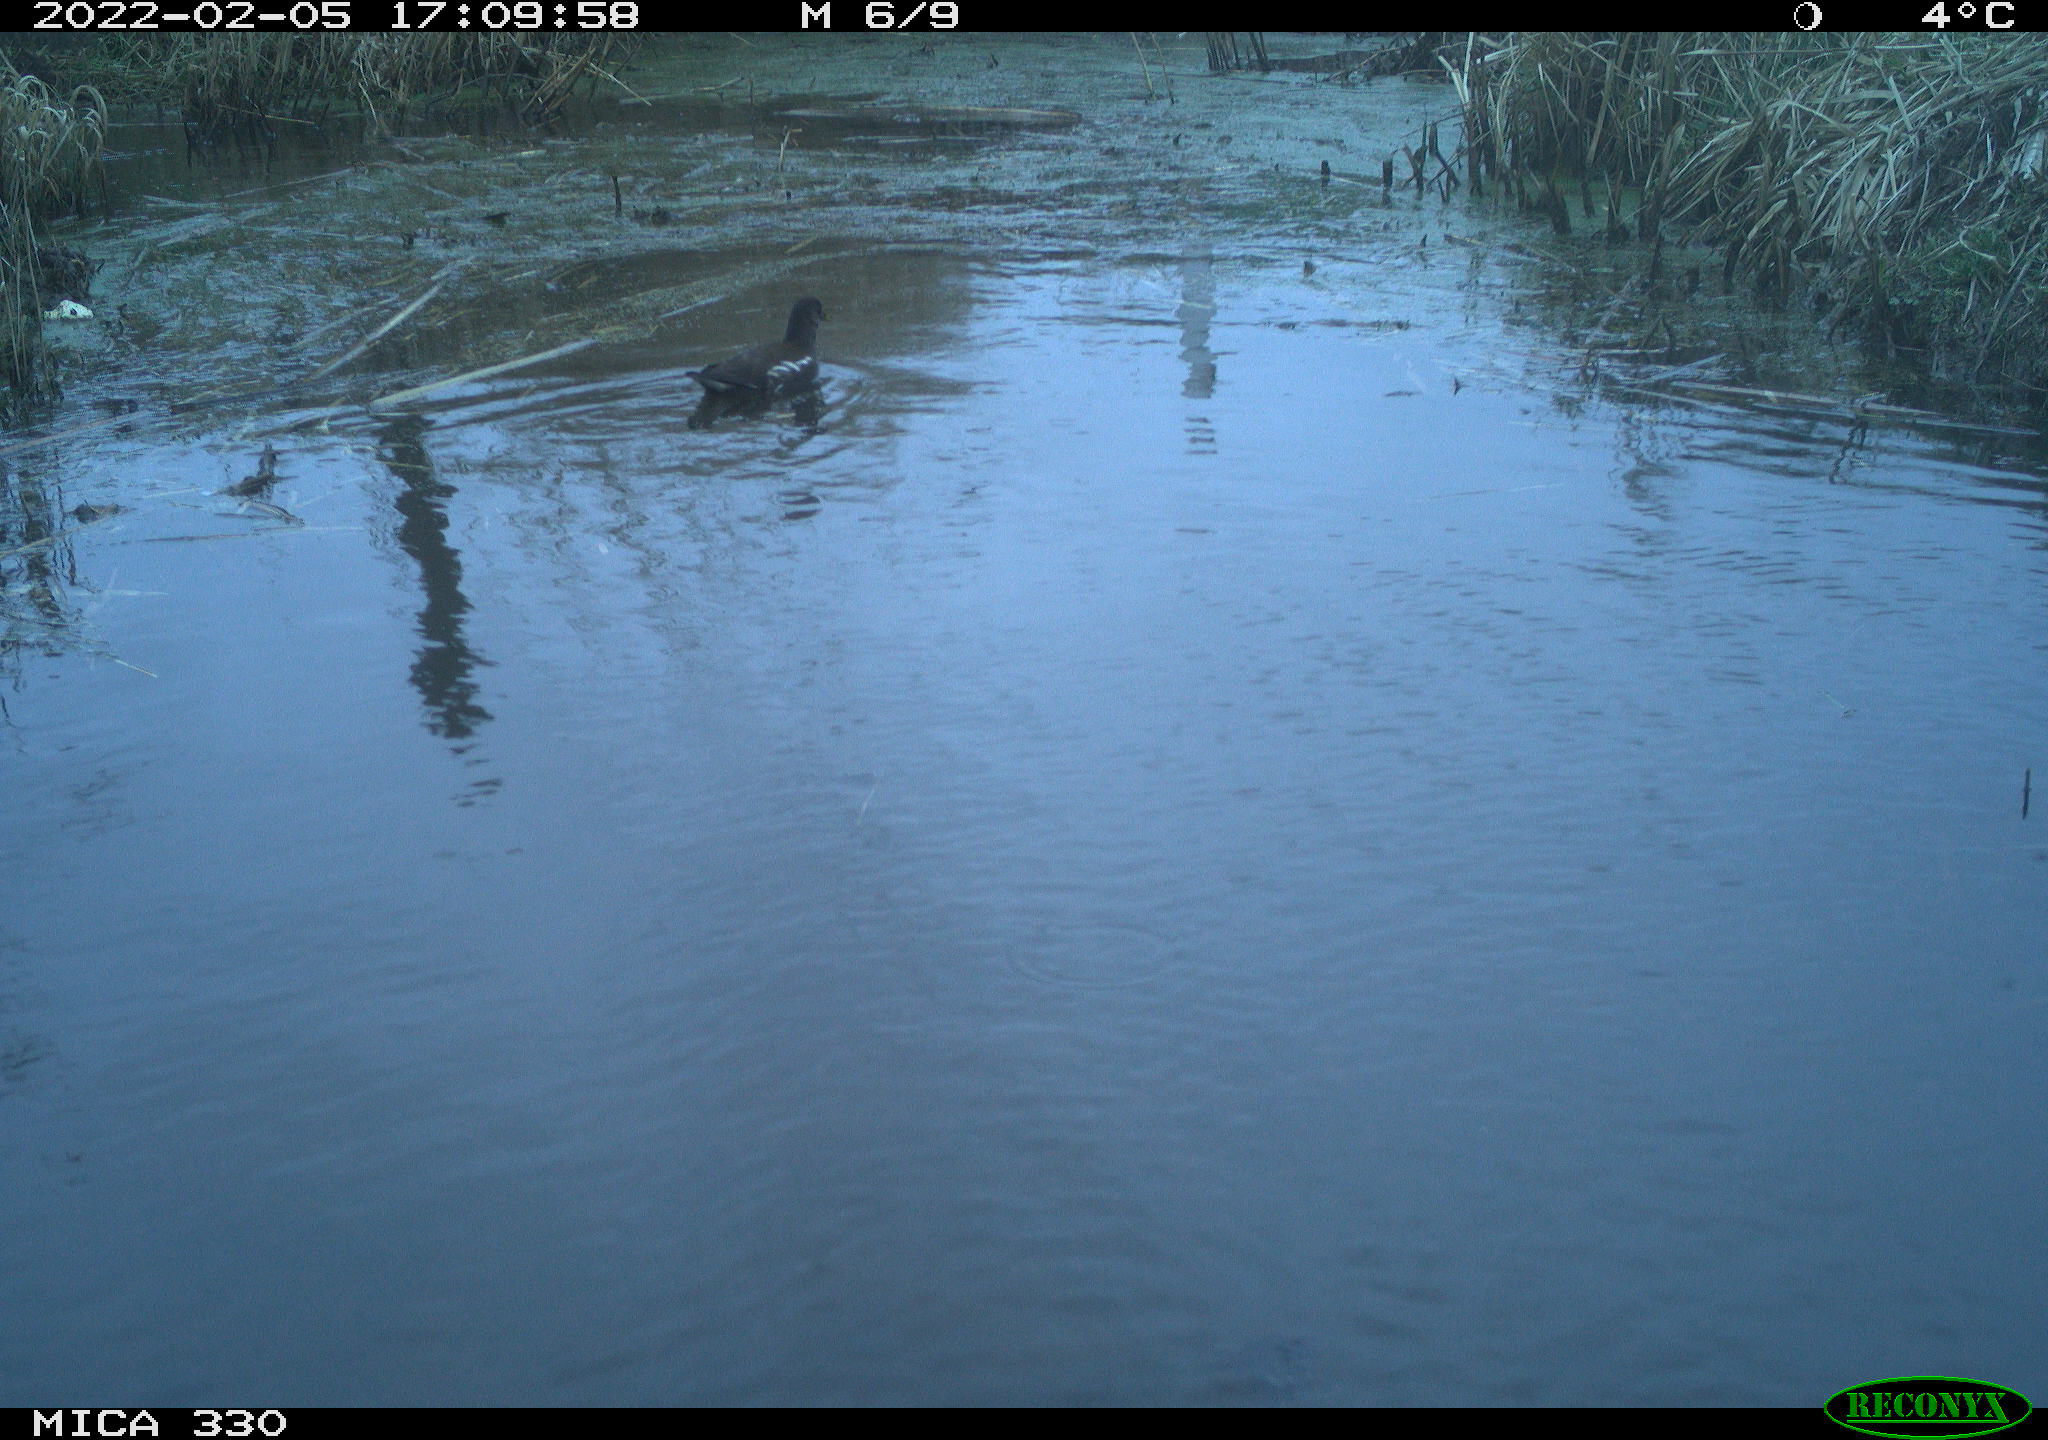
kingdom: Animalia
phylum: Chordata
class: Aves
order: Gruiformes
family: Rallidae
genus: Gallinula
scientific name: Gallinula chloropus
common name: Common moorhen
